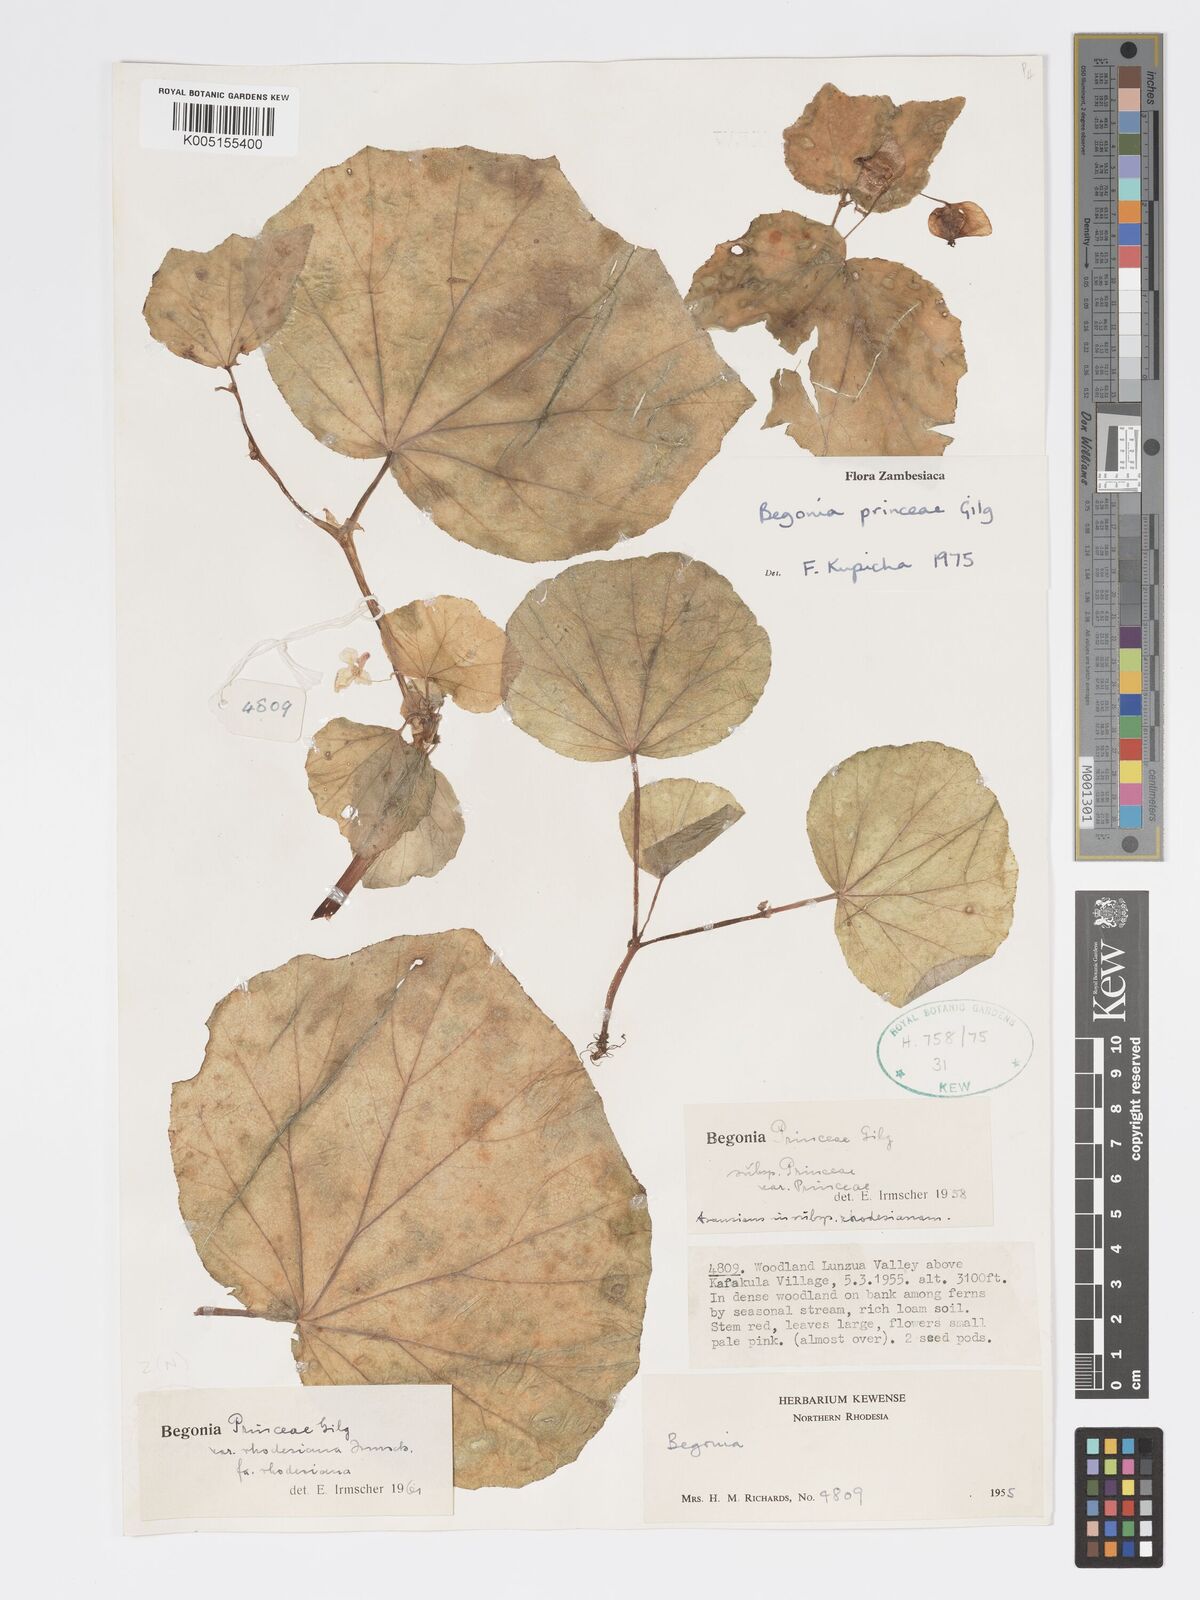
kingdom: Plantae
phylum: Tracheophyta
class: Magnoliopsida
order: Cucurbitales
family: Begoniaceae
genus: Begonia
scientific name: Begonia princeae
